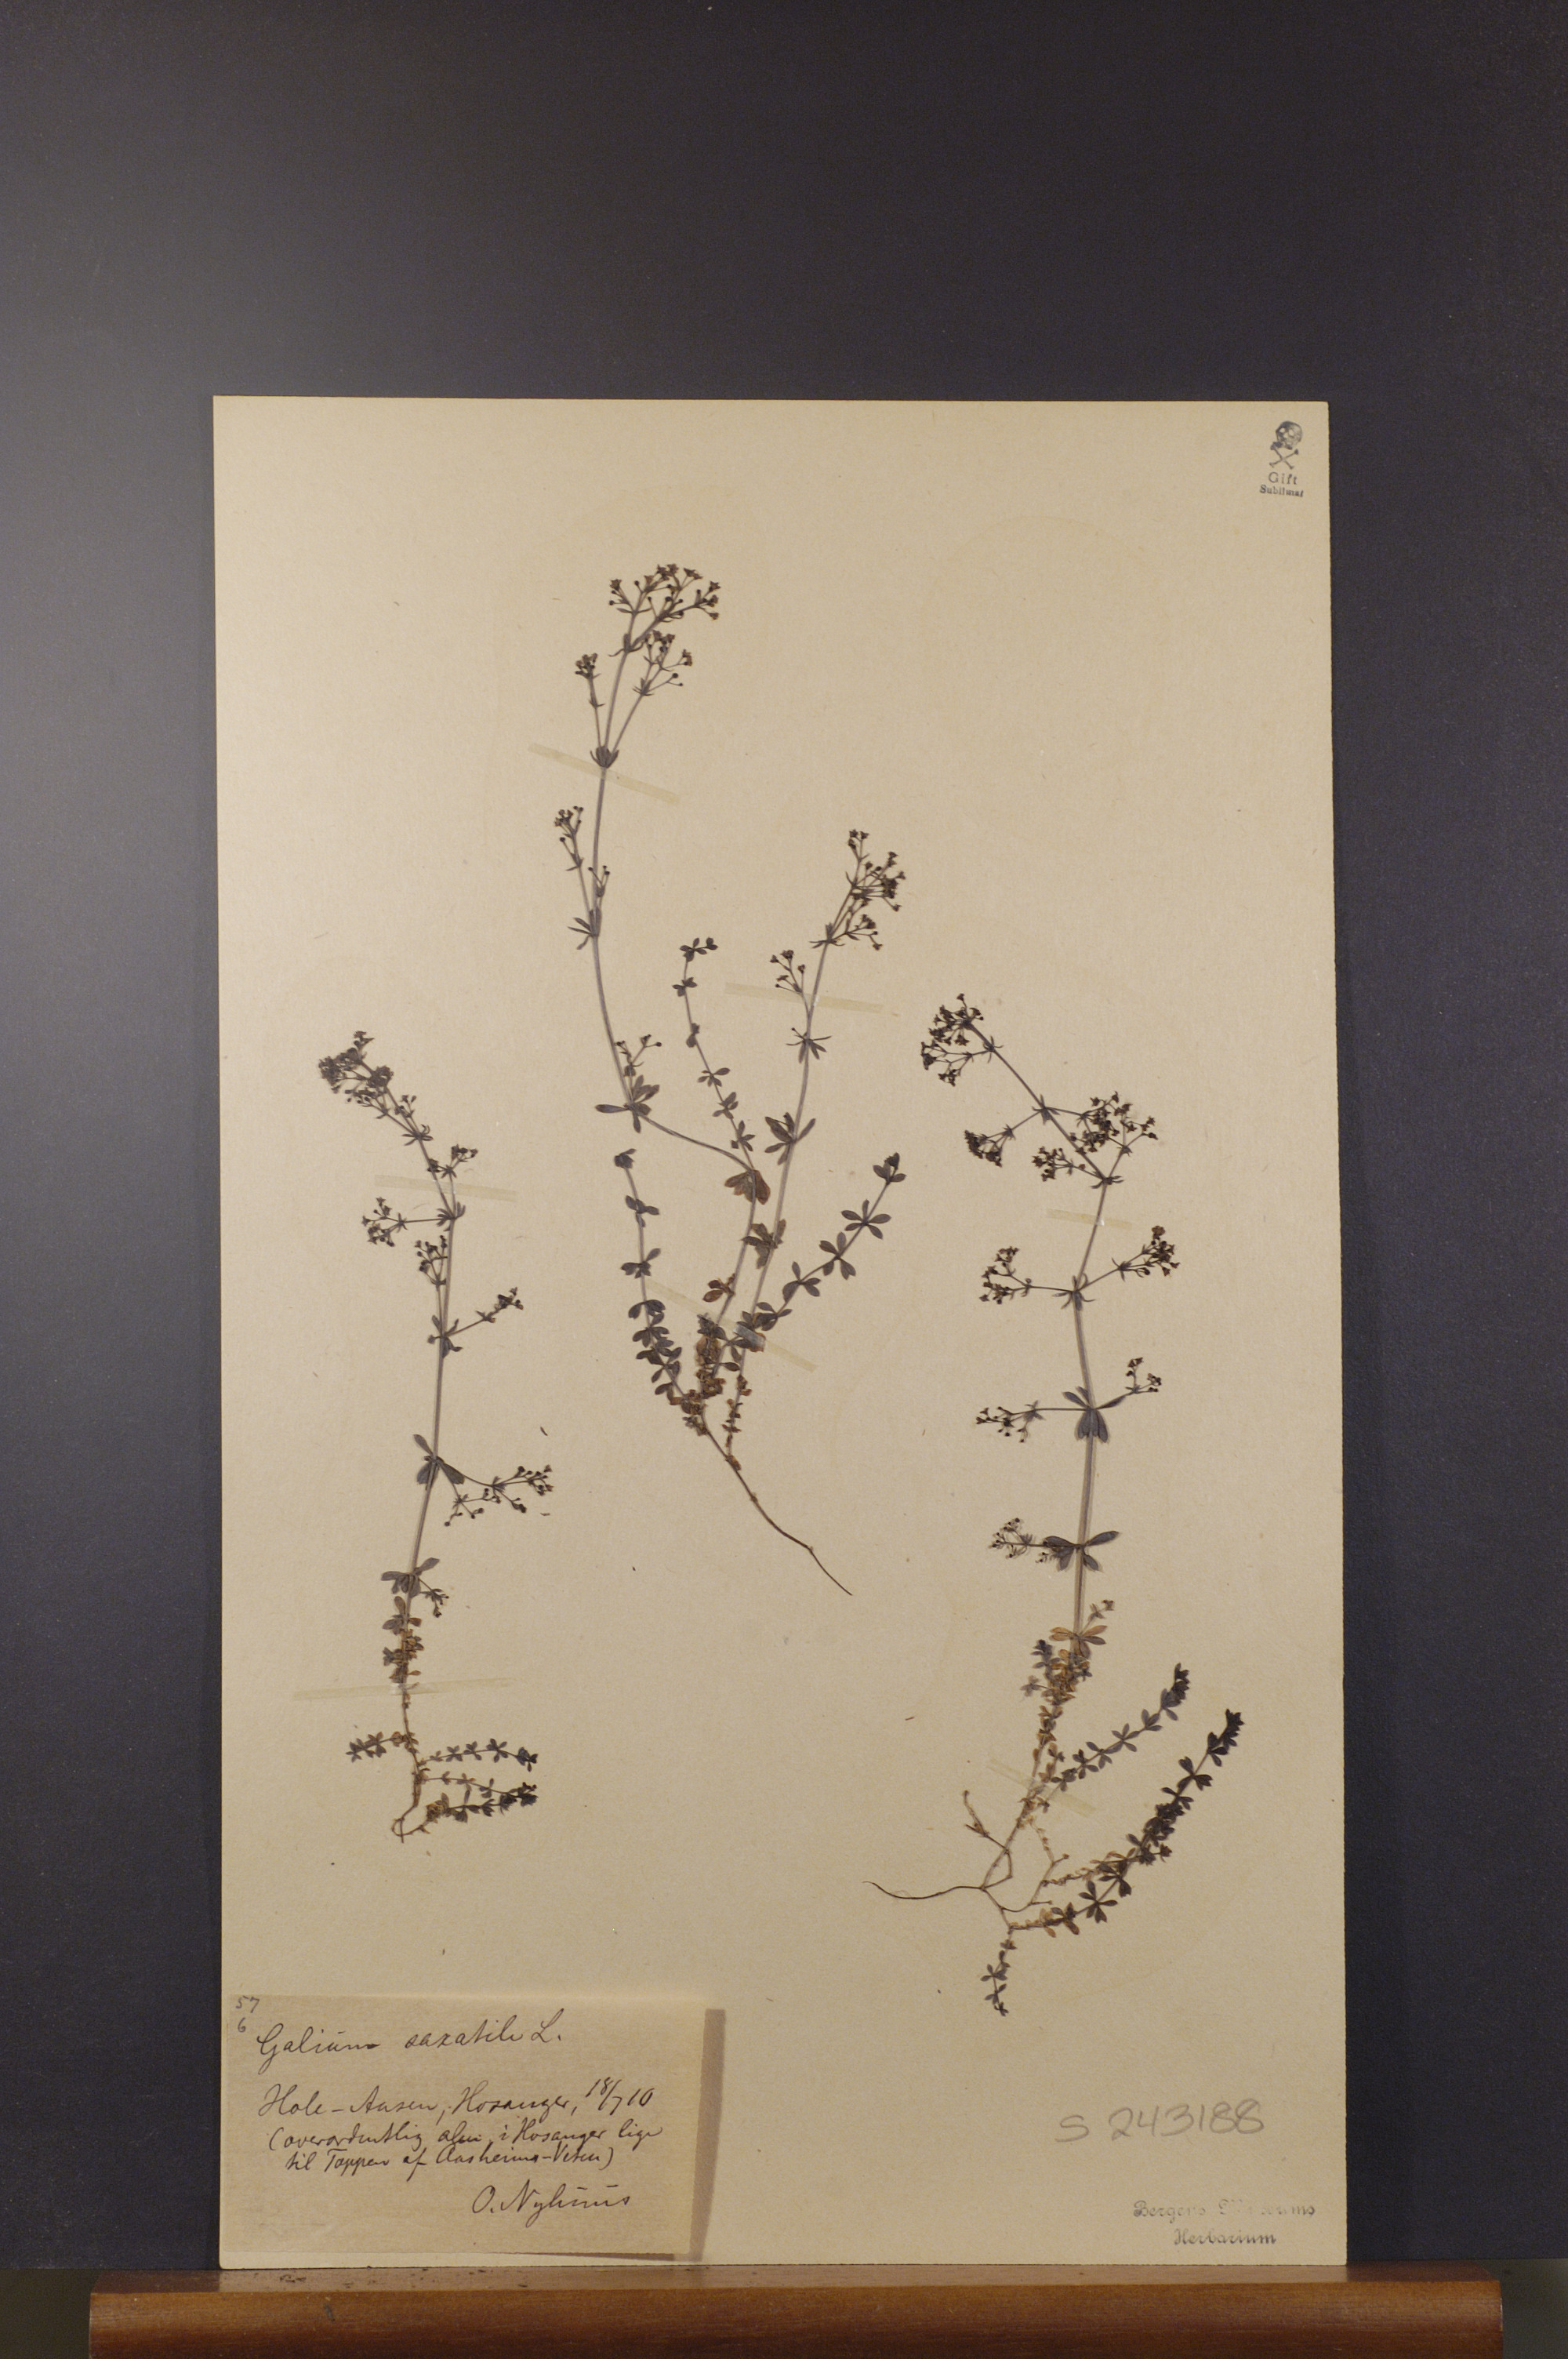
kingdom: Plantae
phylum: Tracheophyta
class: Magnoliopsida
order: Gentianales
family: Rubiaceae
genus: Galium
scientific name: Galium saxatile
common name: Heath bedstraw
